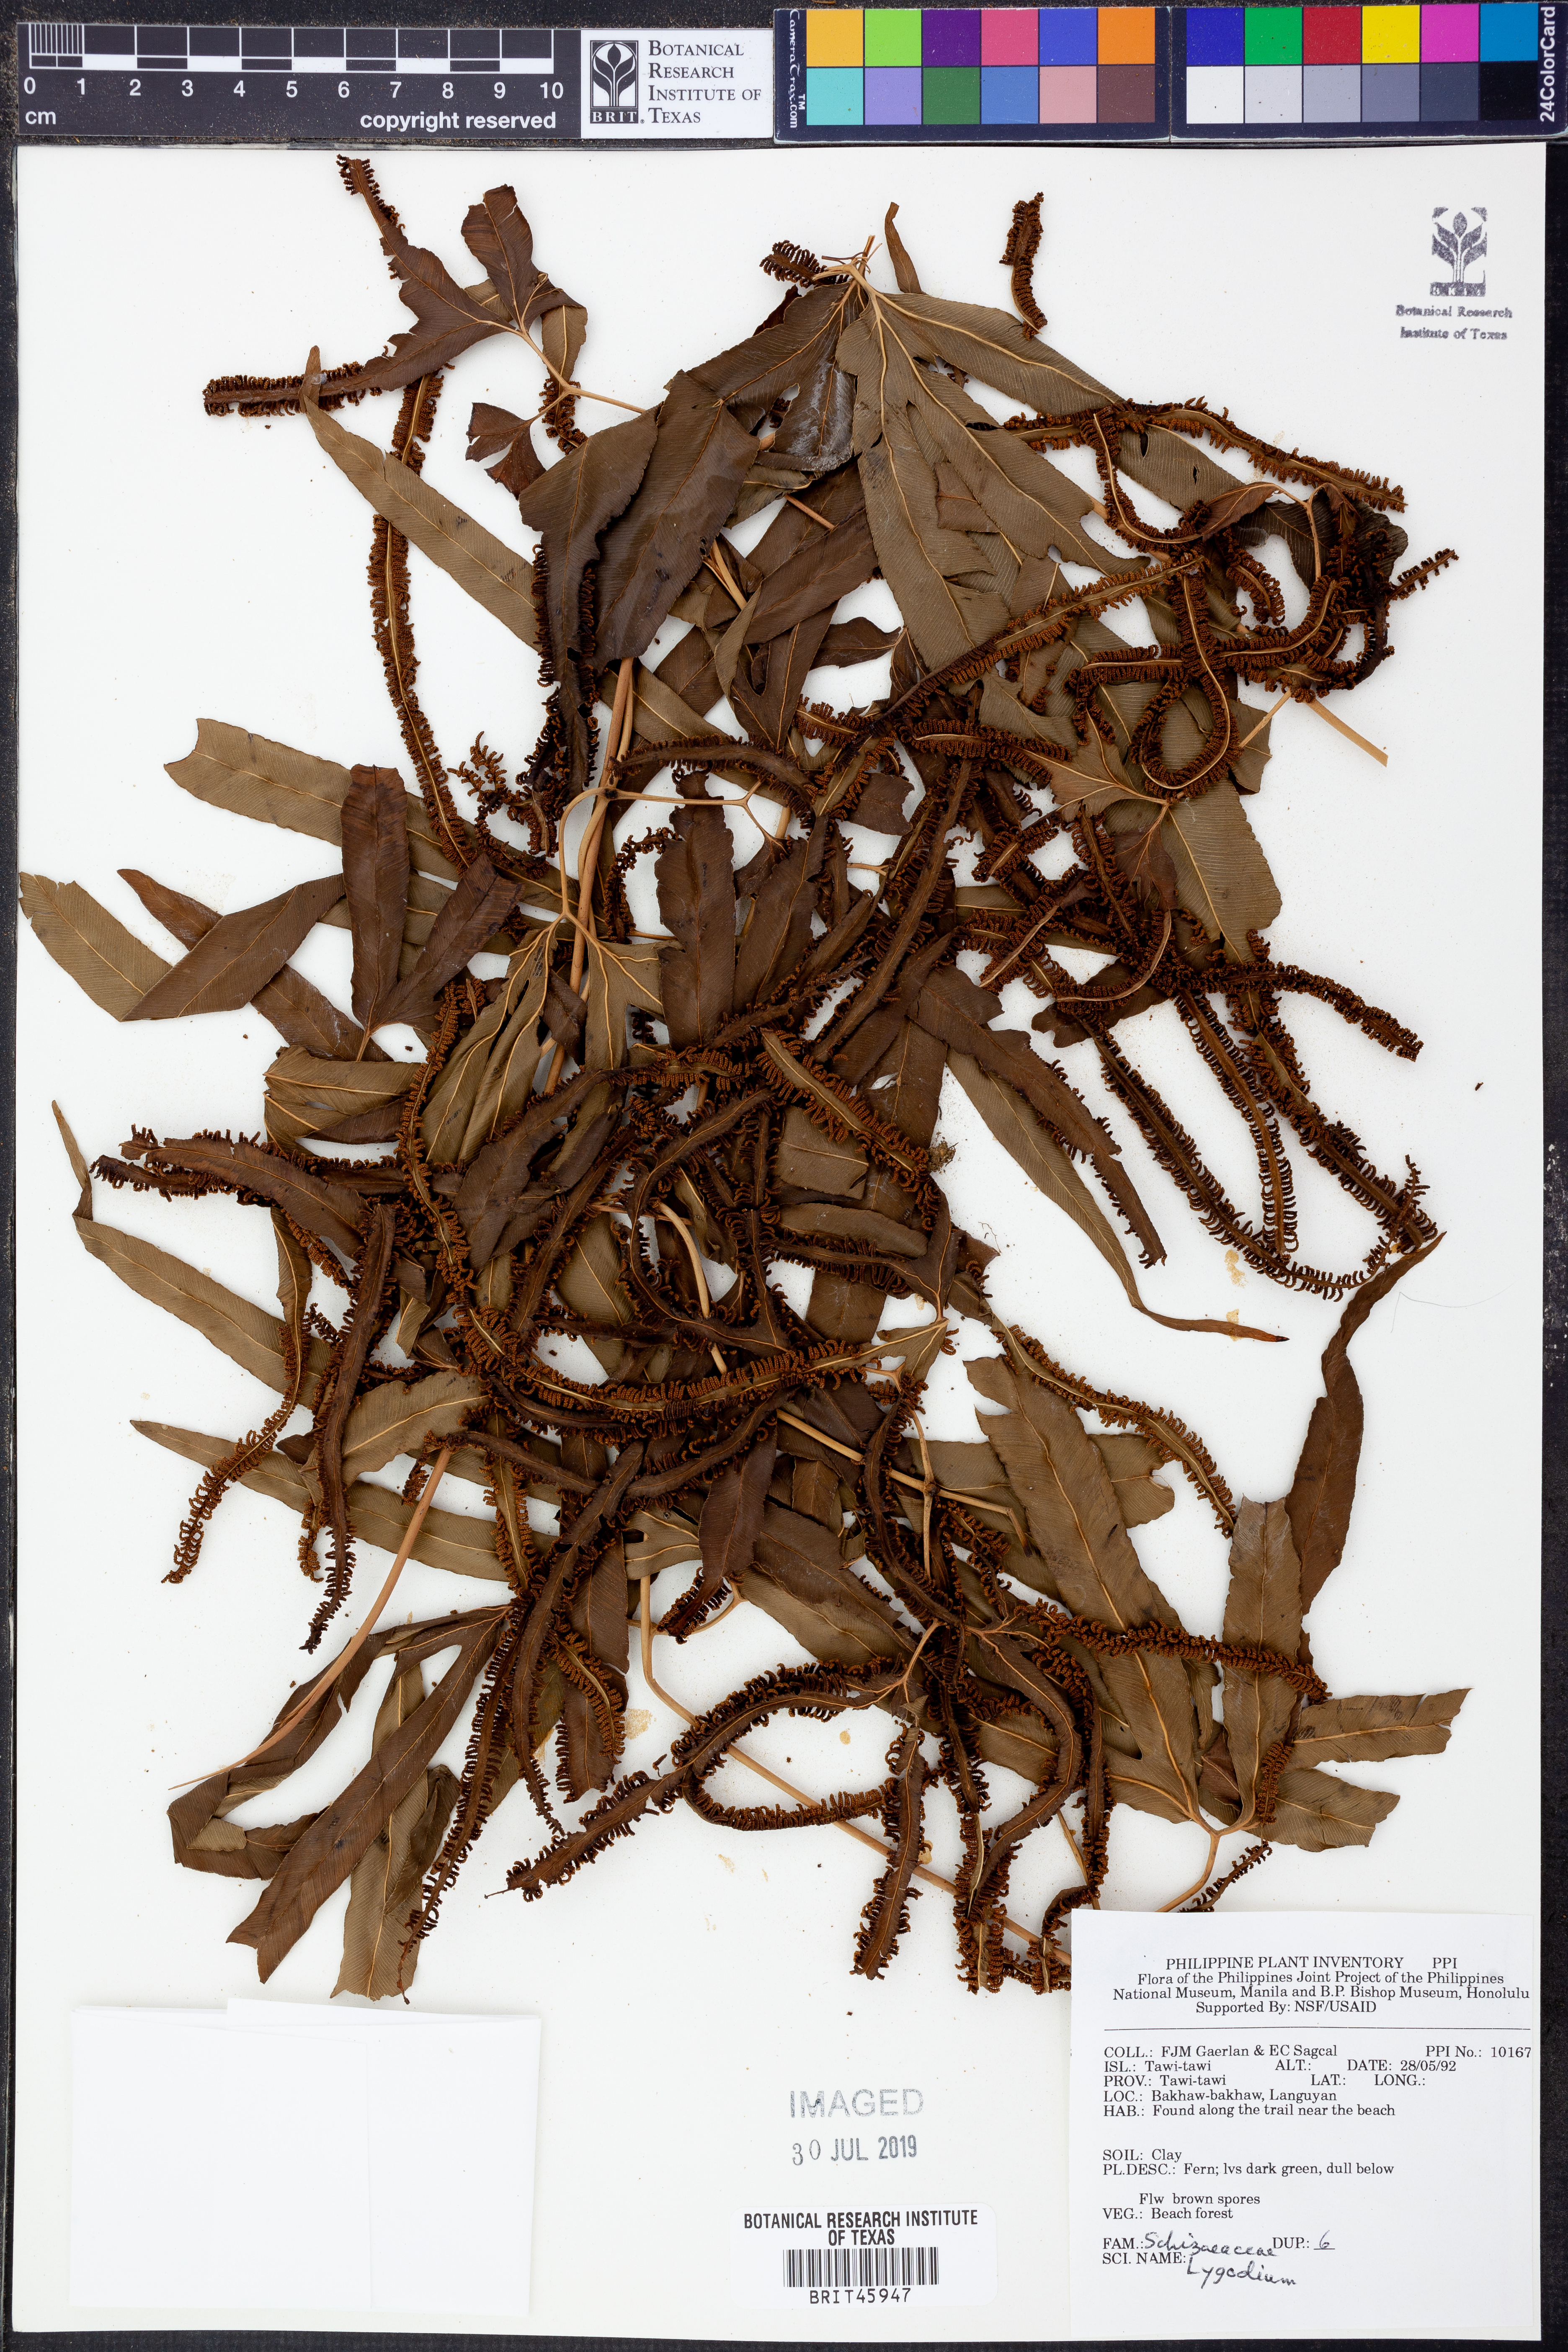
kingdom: Plantae
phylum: Tracheophyta
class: Polypodiopsida
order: Schizaeales
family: Lygodiaceae
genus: Lygodium
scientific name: Lygodium
